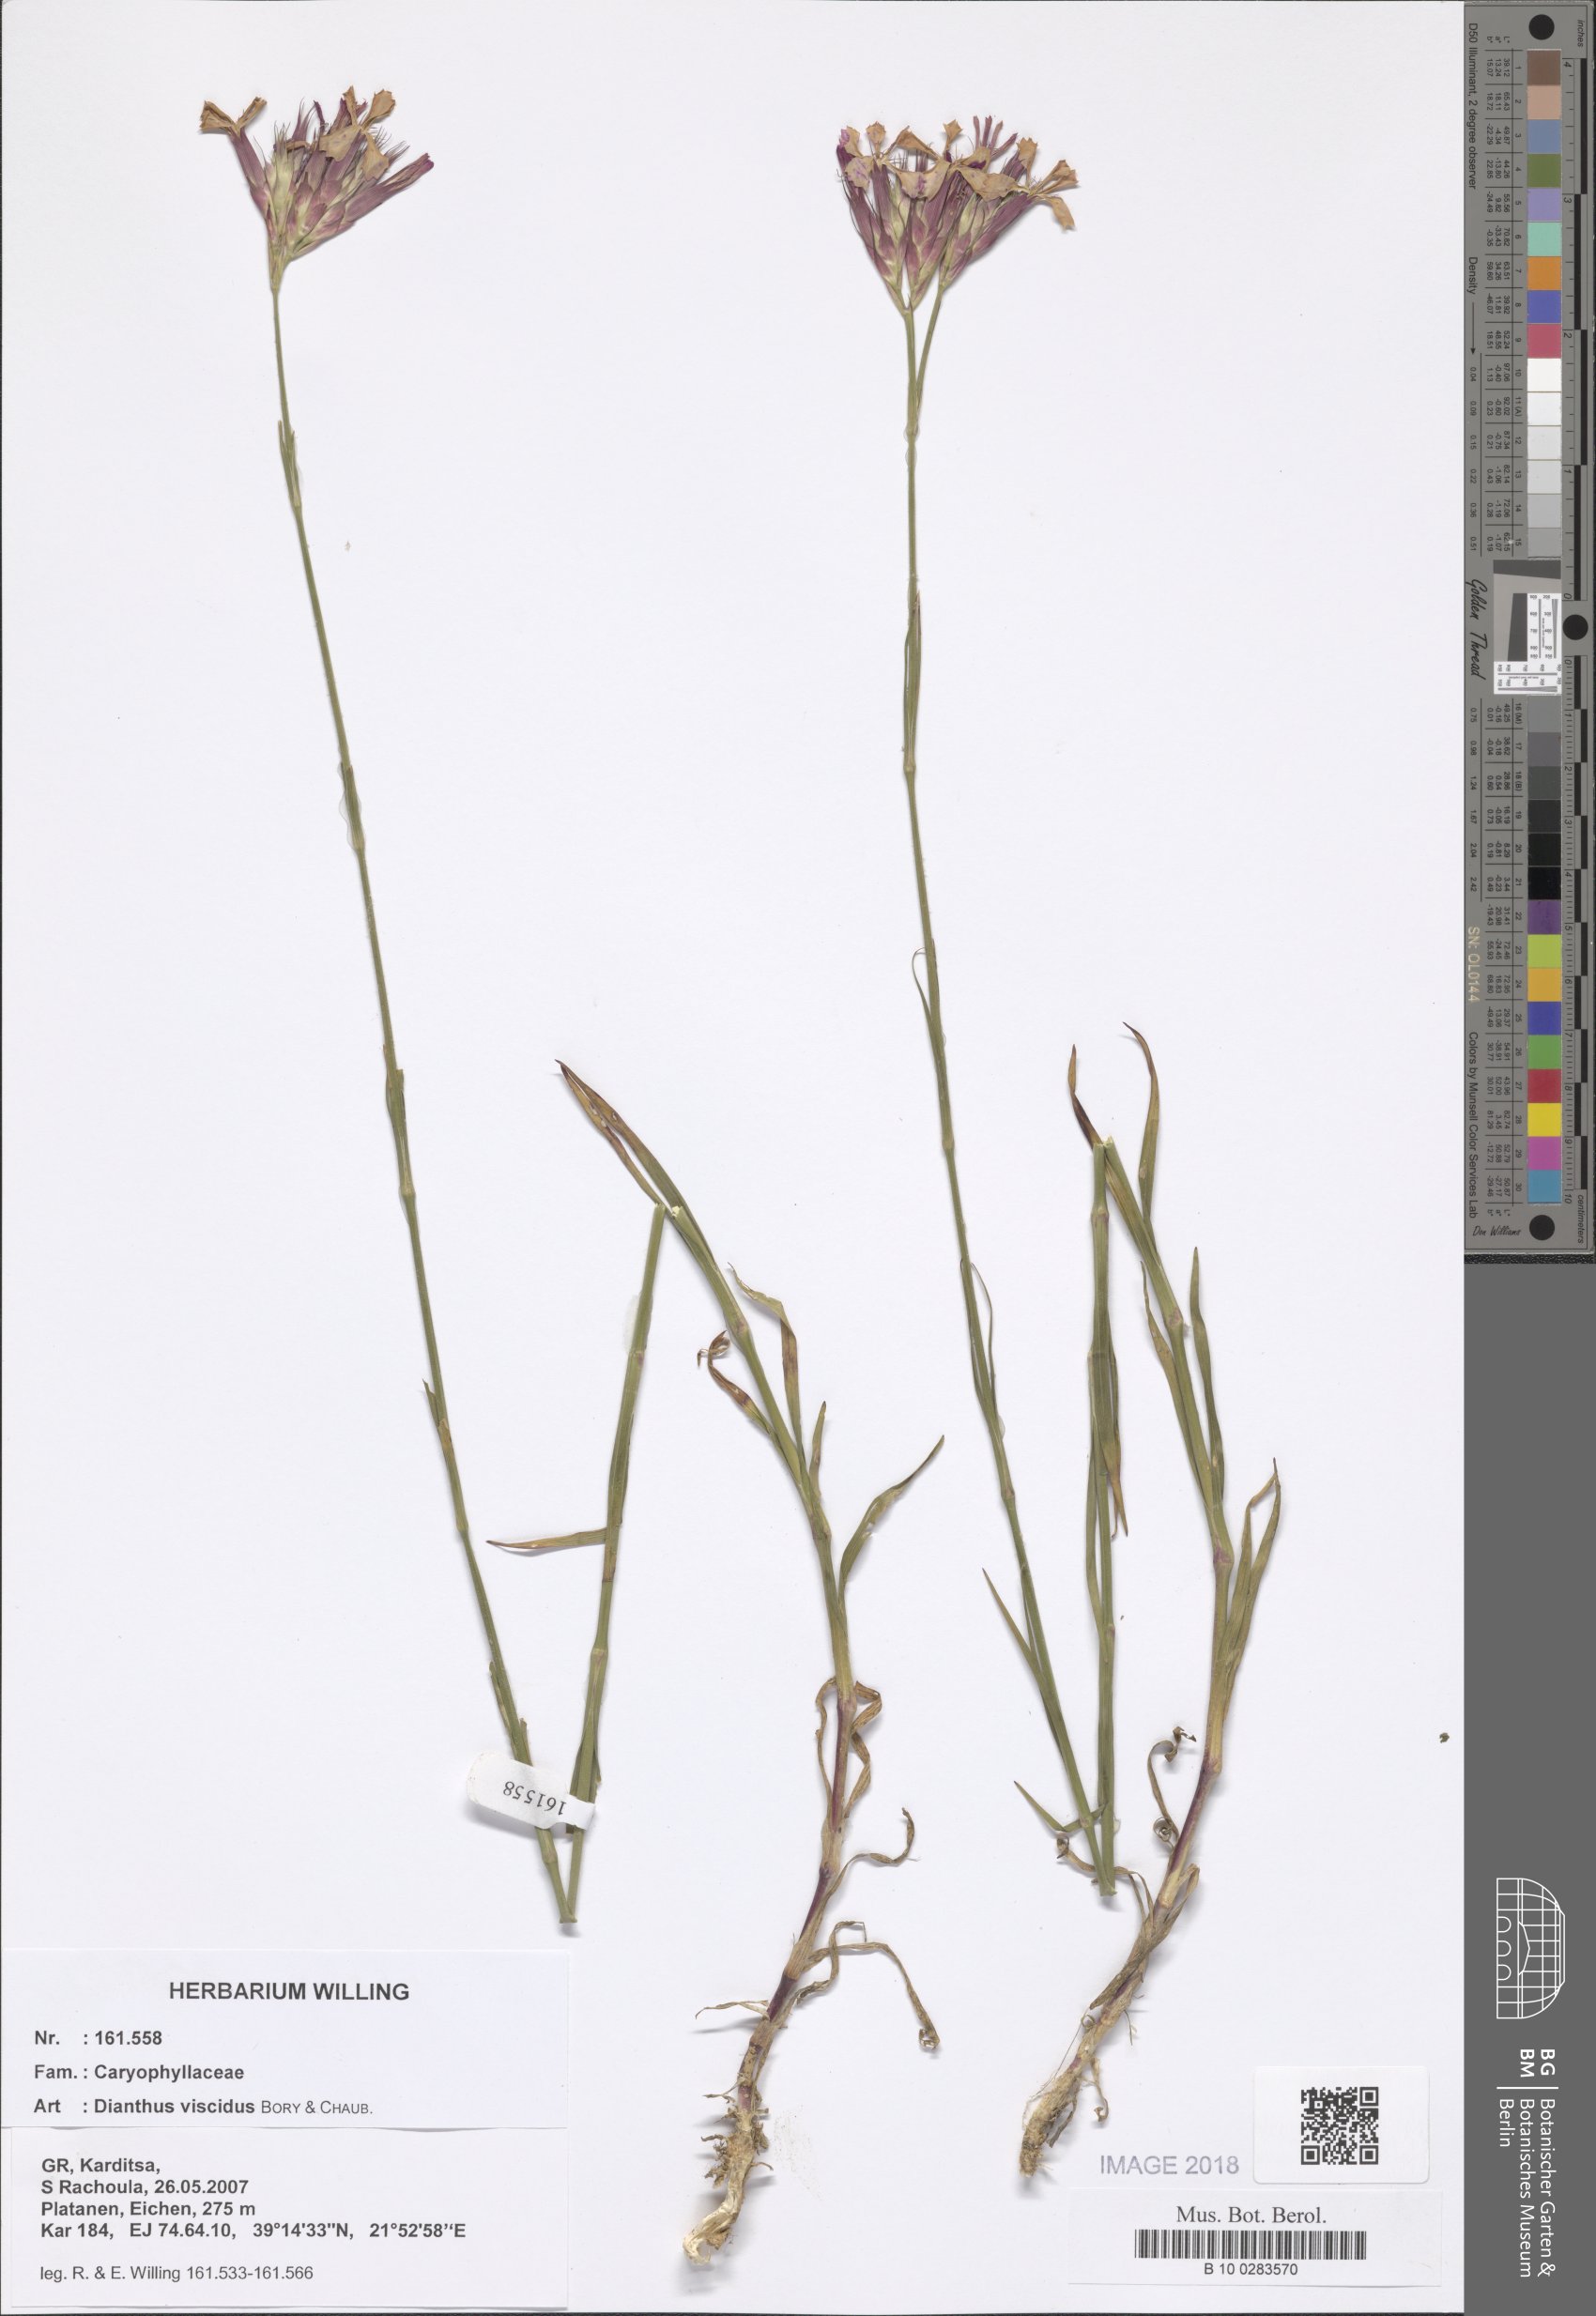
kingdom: Plantae
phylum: Tracheophyta
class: Magnoliopsida
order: Caryophyllales
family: Caryophyllaceae
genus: Dianthus
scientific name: Dianthus viscidus
